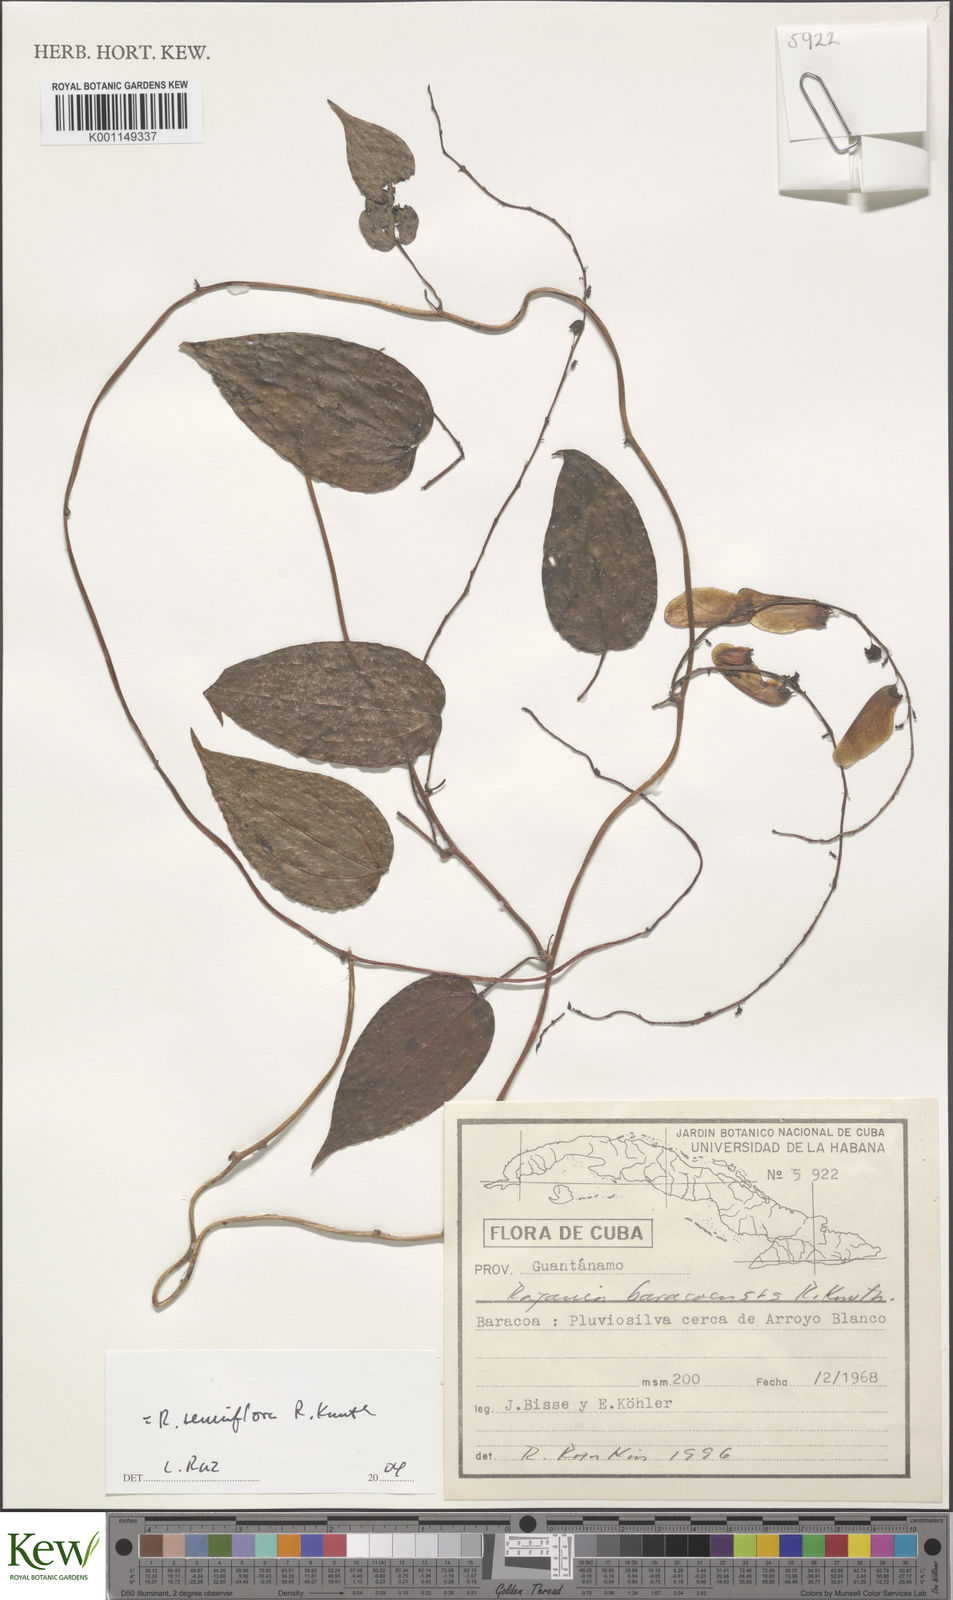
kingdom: Plantae
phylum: Tracheophyta
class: Liliopsida
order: Dioscoreales
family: Dioscoreaceae
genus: Dioscorea
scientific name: Dioscorea bulbifera
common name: Air yam
